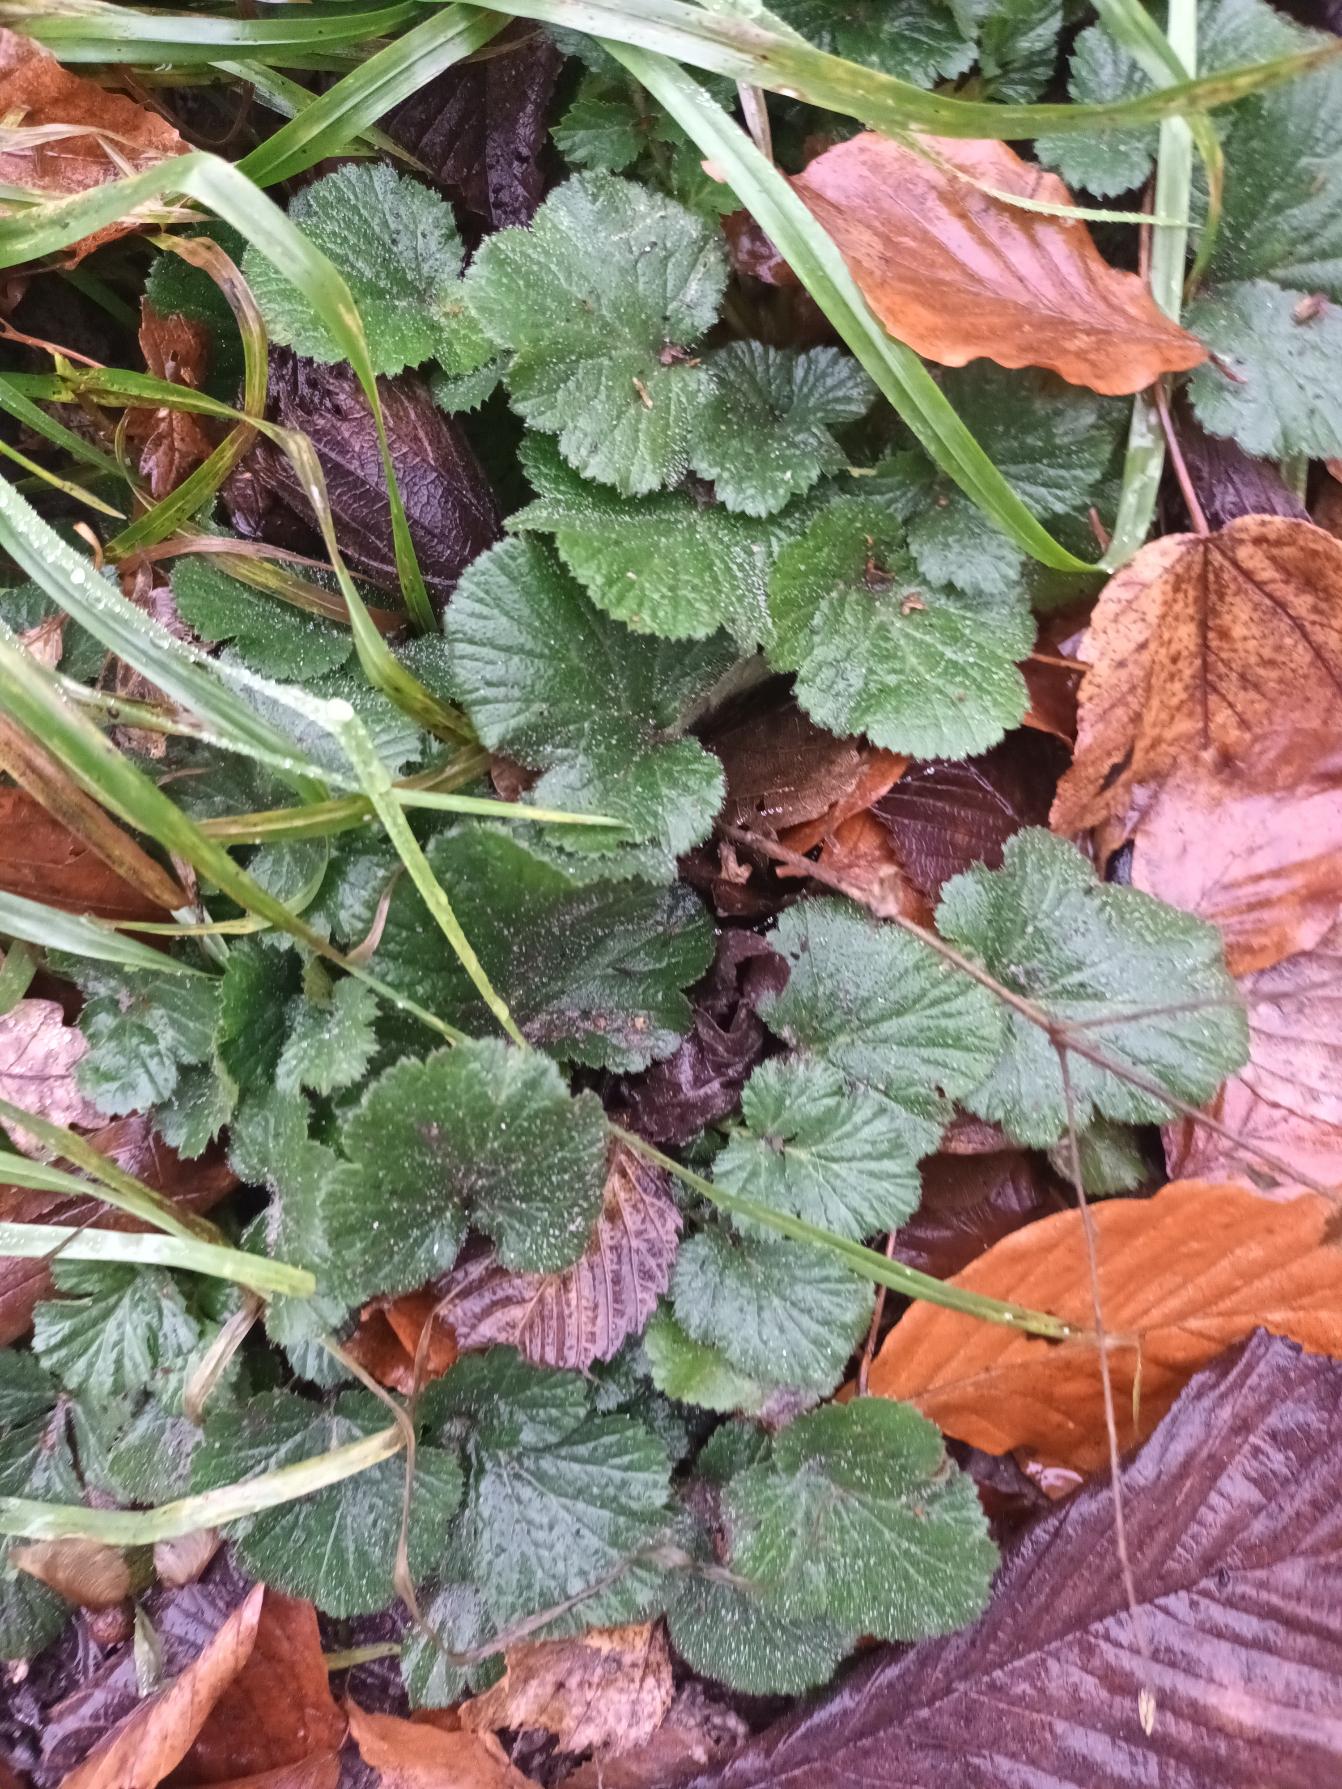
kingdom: Plantae
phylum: Tracheophyta
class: Magnoliopsida
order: Rosales
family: Rosaceae
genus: Geum
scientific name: Geum urbanum
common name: Feber-nellikerod
